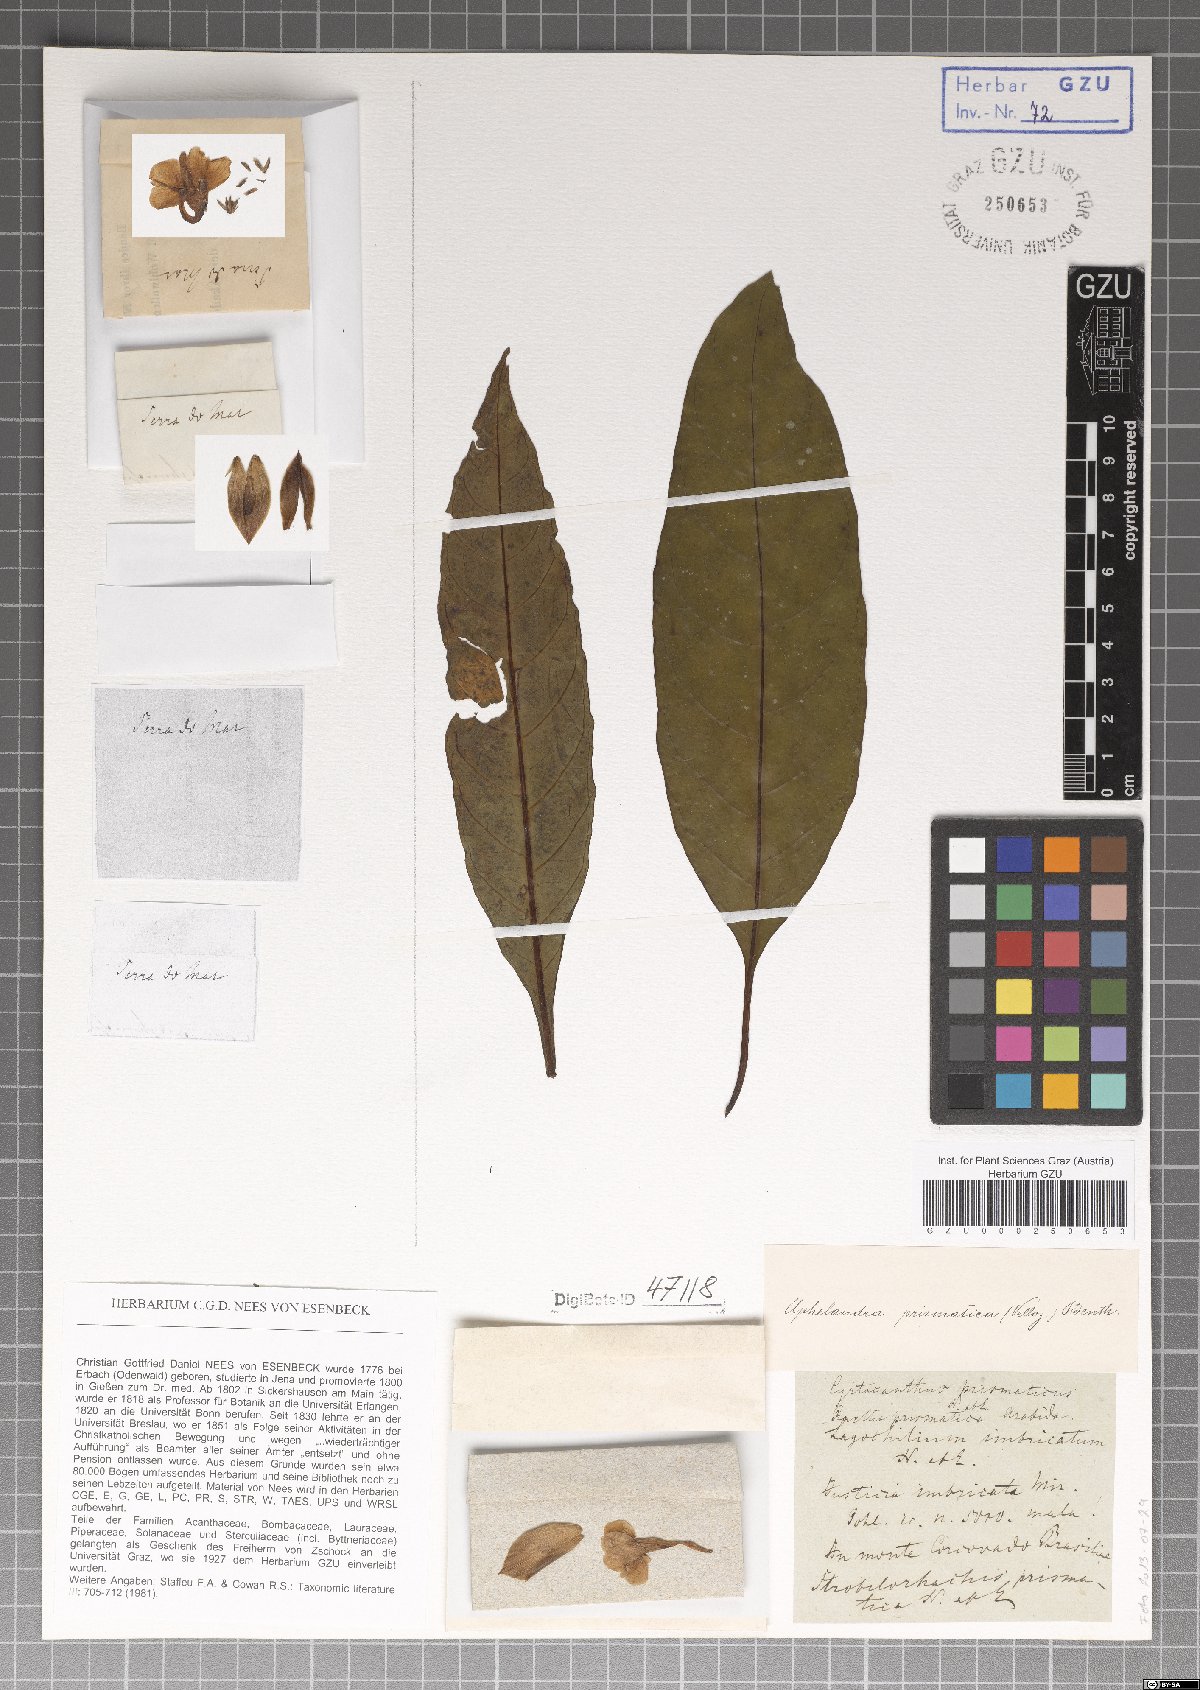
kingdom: Plantae
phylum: Tracheophyta
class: Magnoliopsida
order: Lamiales
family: Acanthaceae
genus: Aphelandra
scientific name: Aphelandra prismatica
